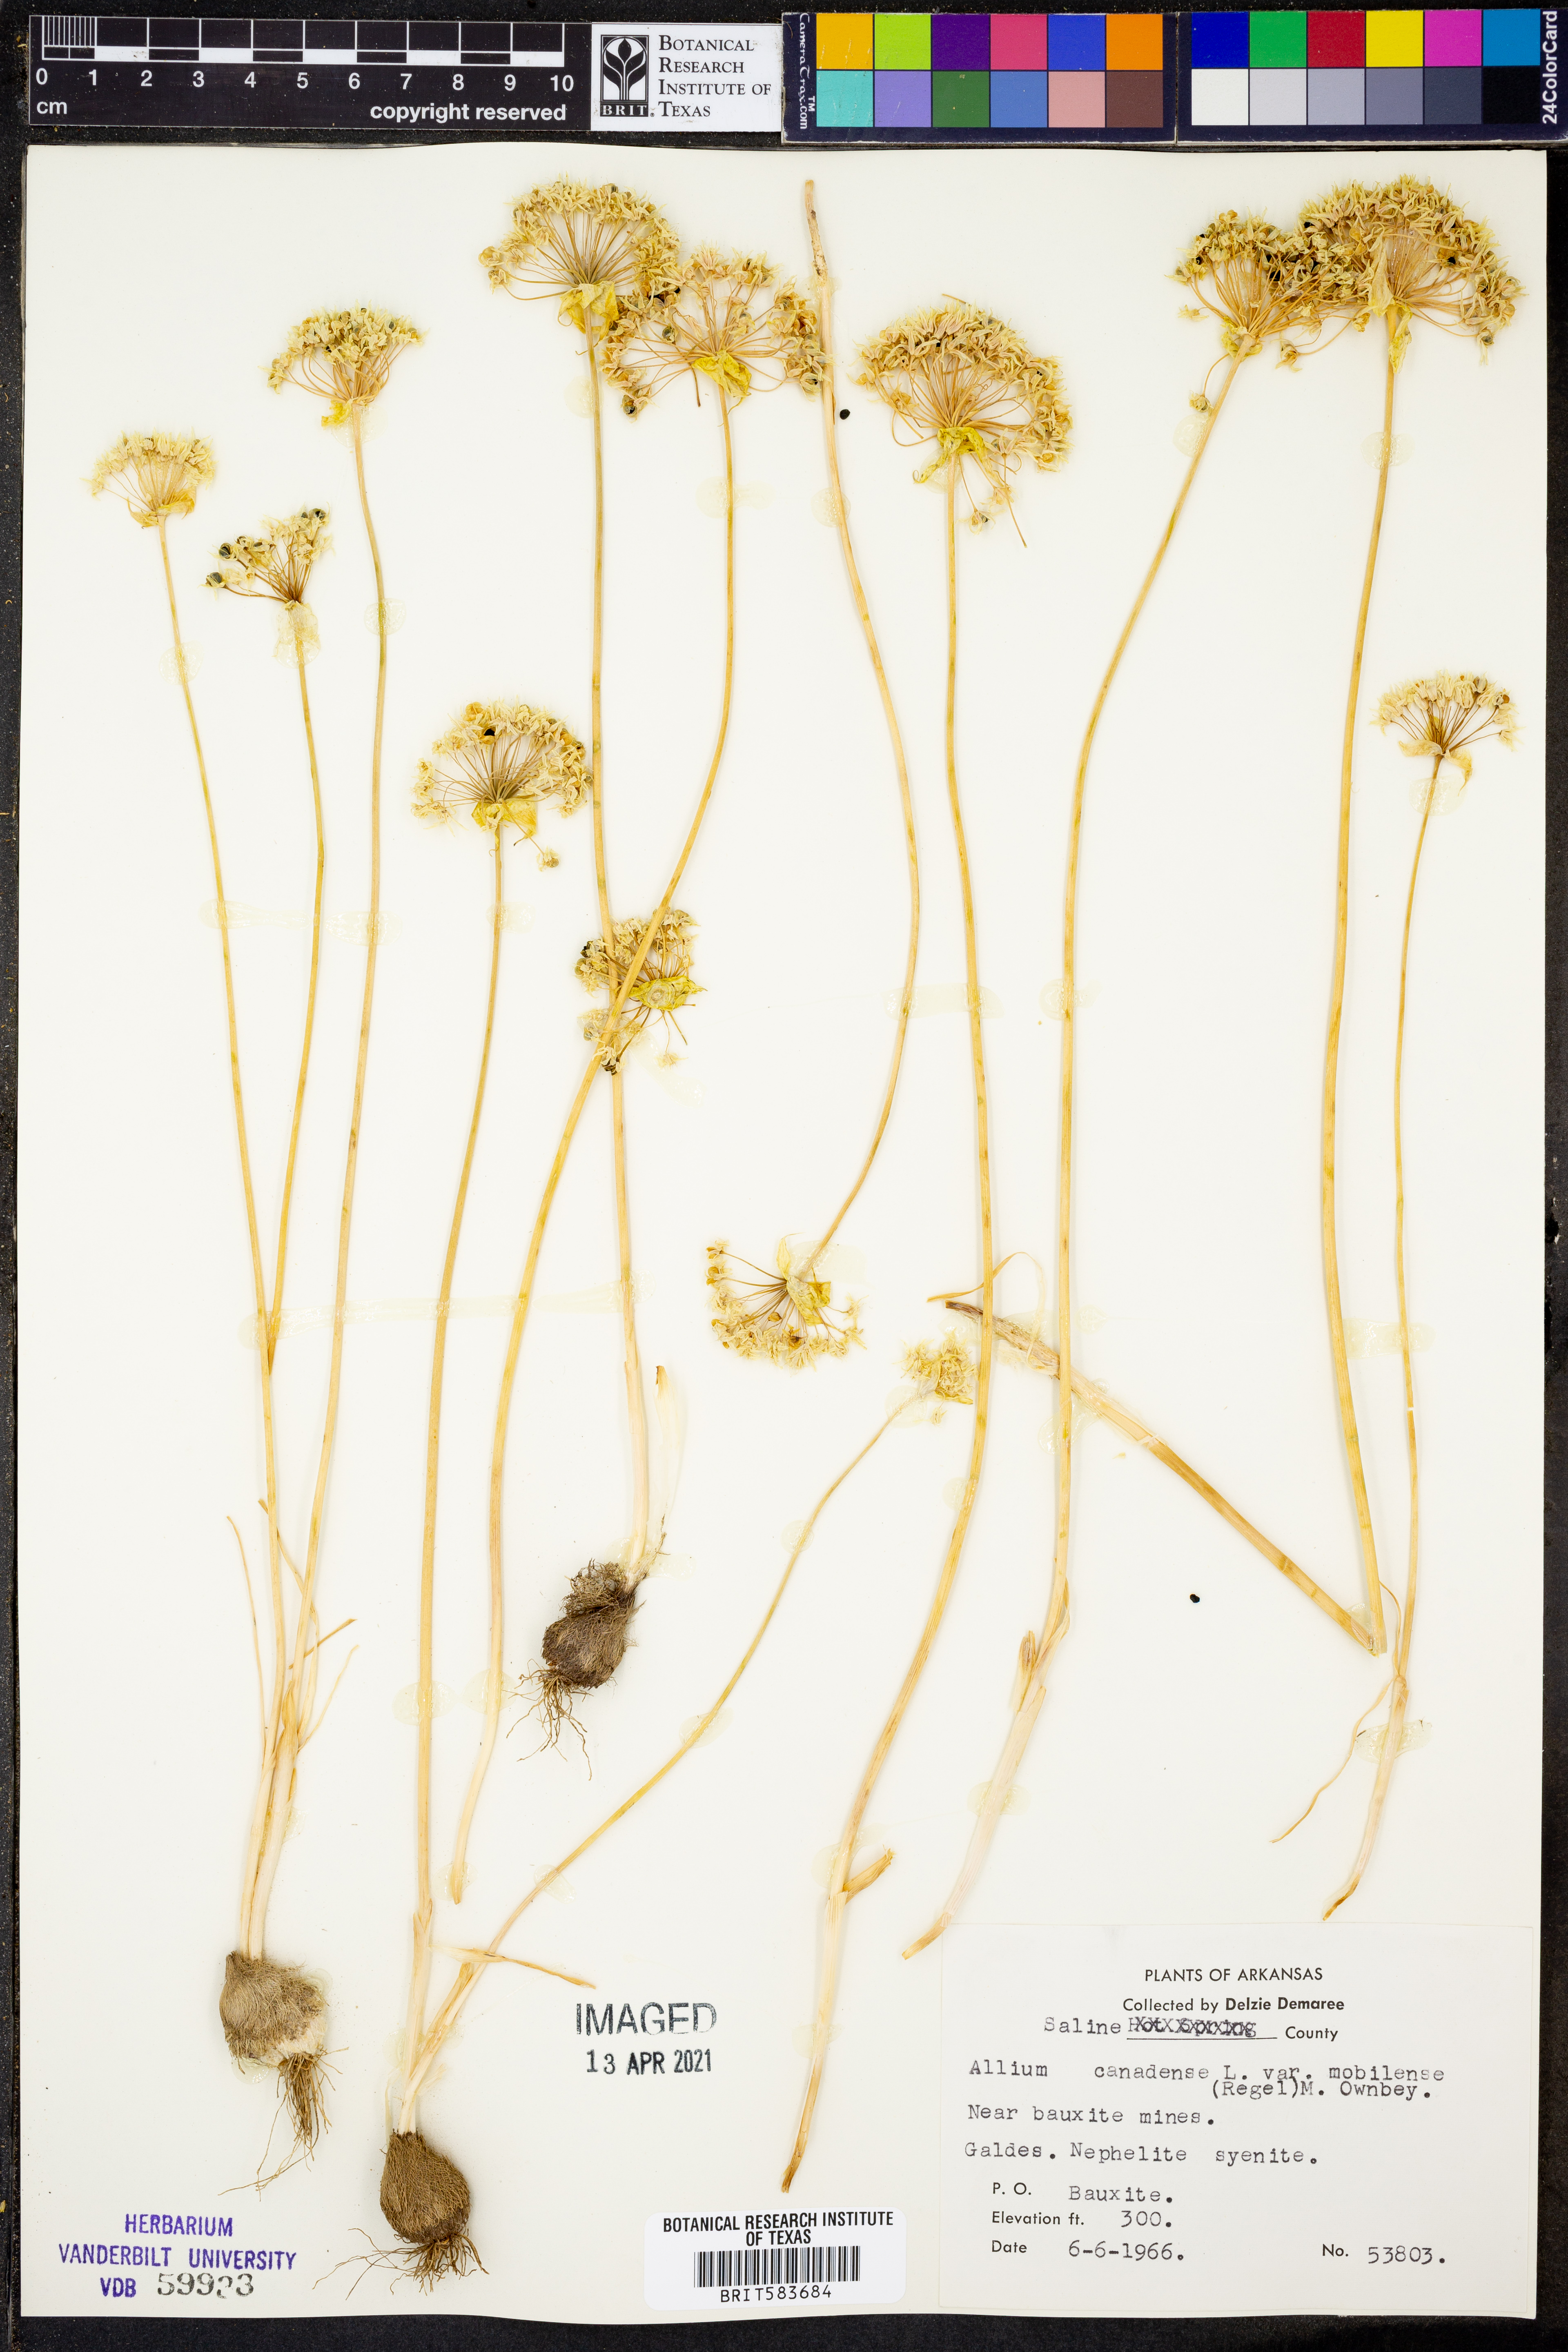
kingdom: Plantae
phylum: Tracheophyta
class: Liliopsida
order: Asparagales
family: Amaryllidaceae
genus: Allium
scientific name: Allium canadense
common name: Meadow garlic
